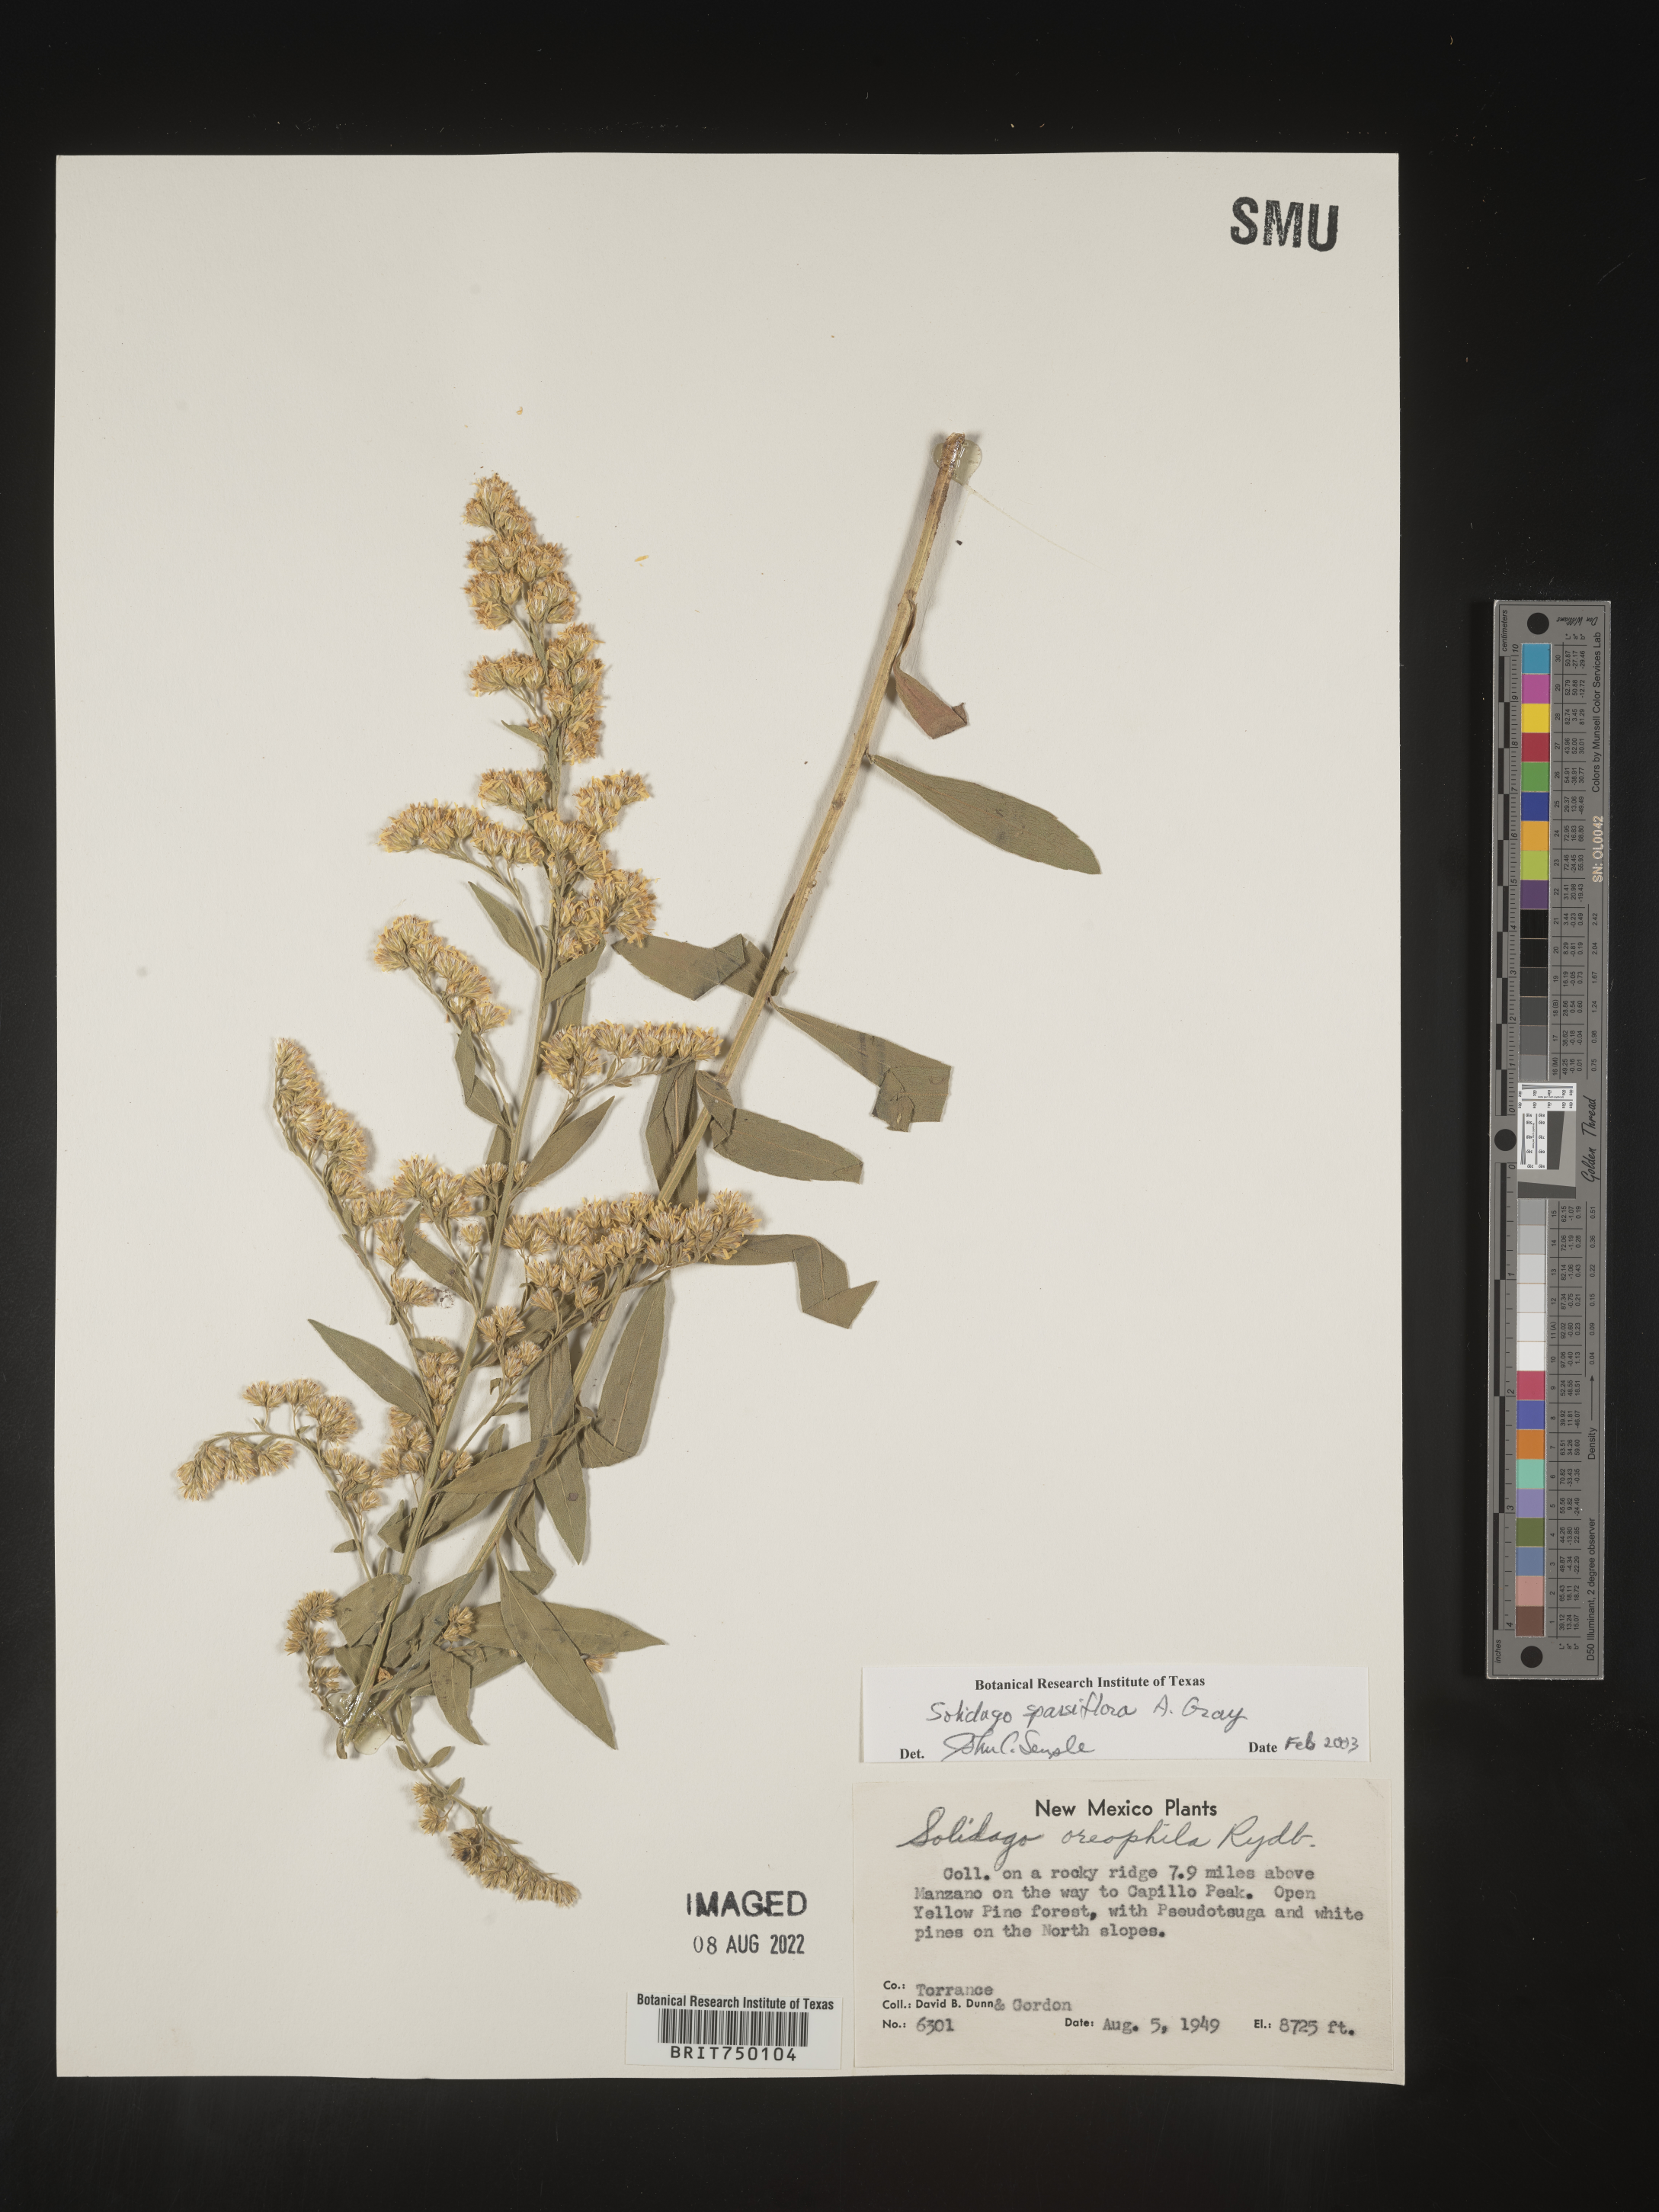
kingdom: Plantae
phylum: Tracheophyta
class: Magnoliopsida
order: Asterales
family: Asteraceae
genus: Solidago
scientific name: Solidago velutina
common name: Three-nerve goldenrod
